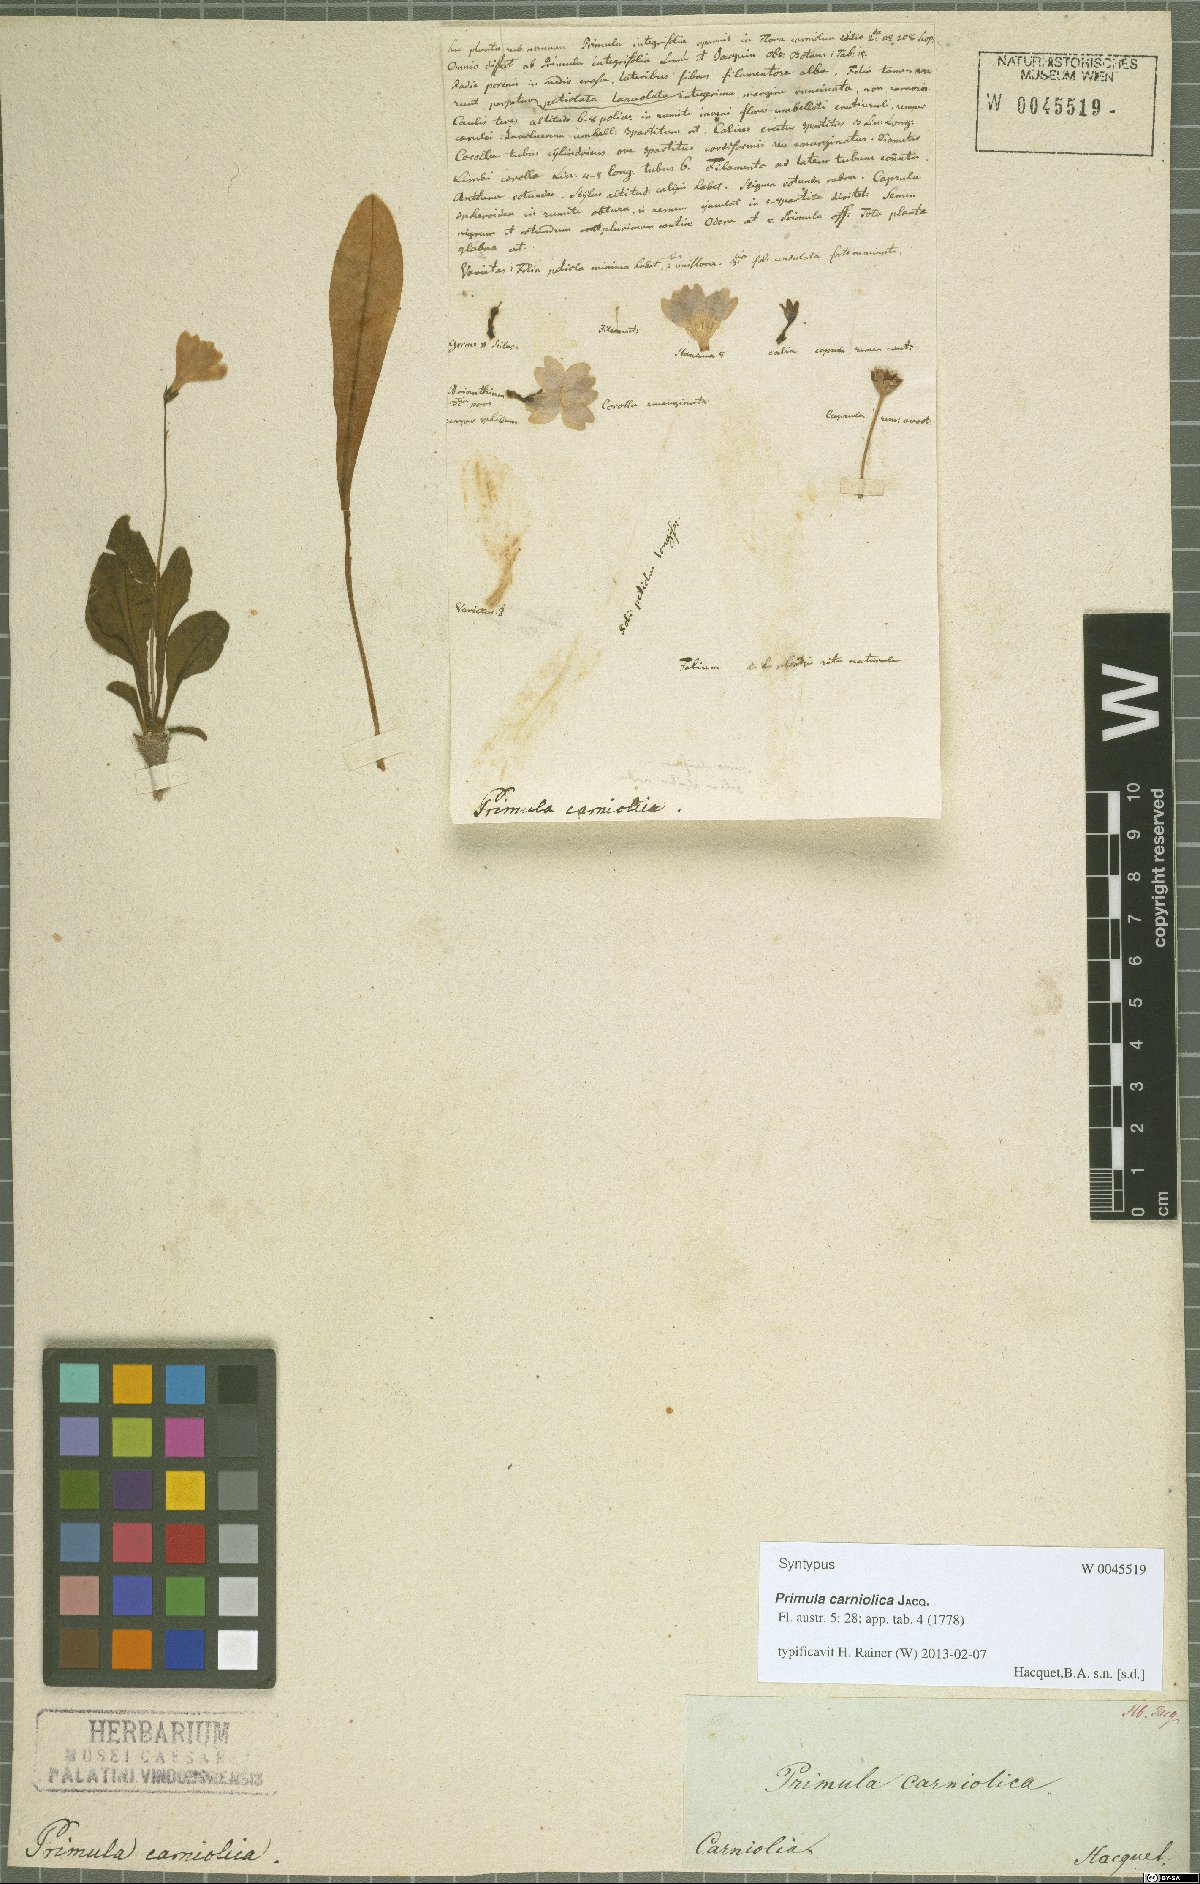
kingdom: Plantae
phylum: Tracheophyta
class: Magnoliopsida
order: Ericales
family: Primulaceae
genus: Primula
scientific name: Primula carniolica
